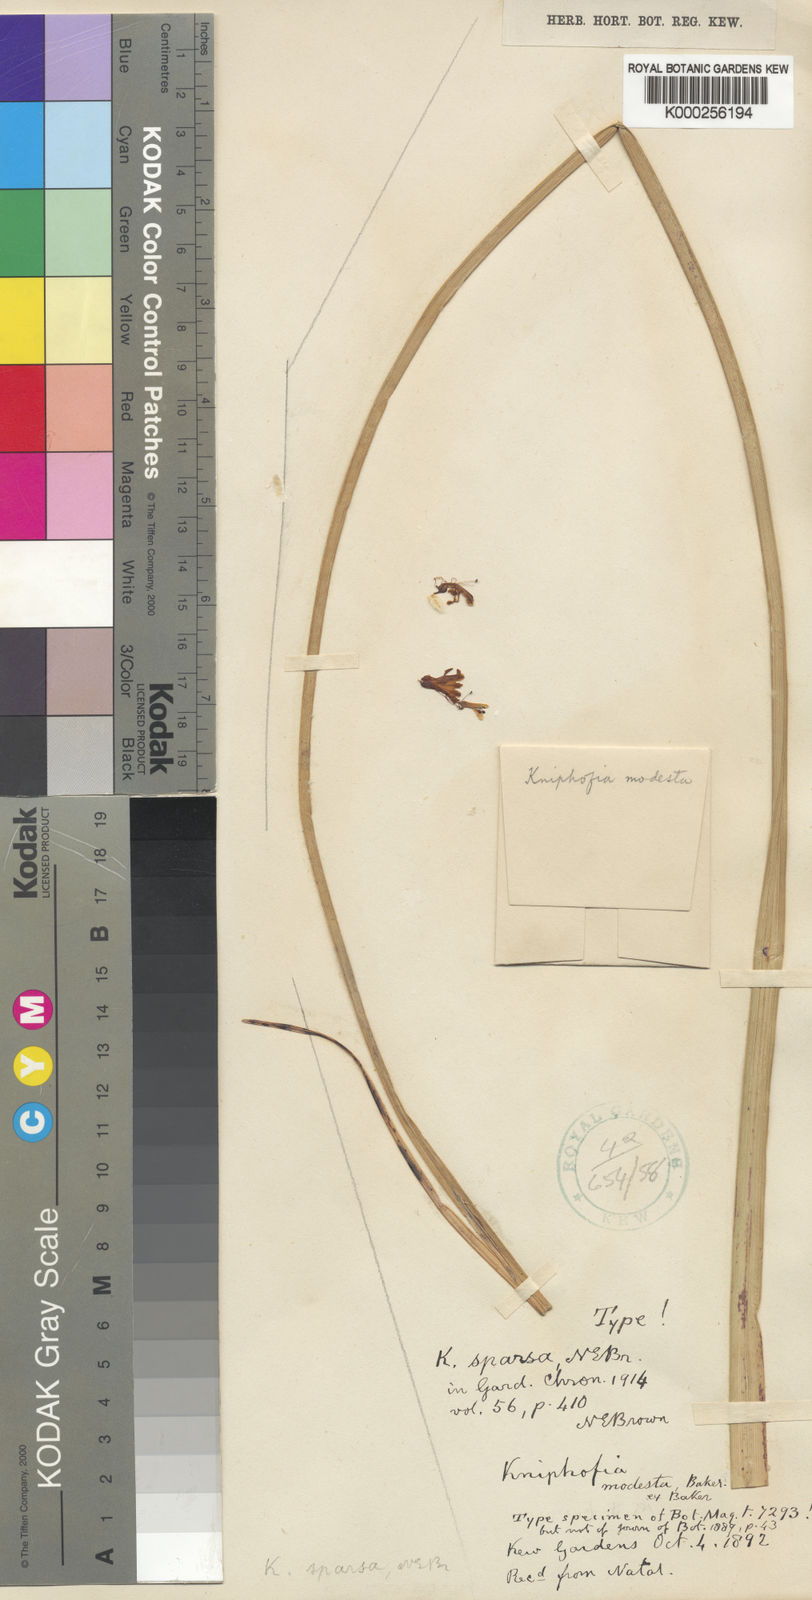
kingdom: Plantae
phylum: Tracheophyta
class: Liliopsida
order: Asparagales
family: Asphodelaceae
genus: Kniphofia
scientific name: Kniphofia gracilis
